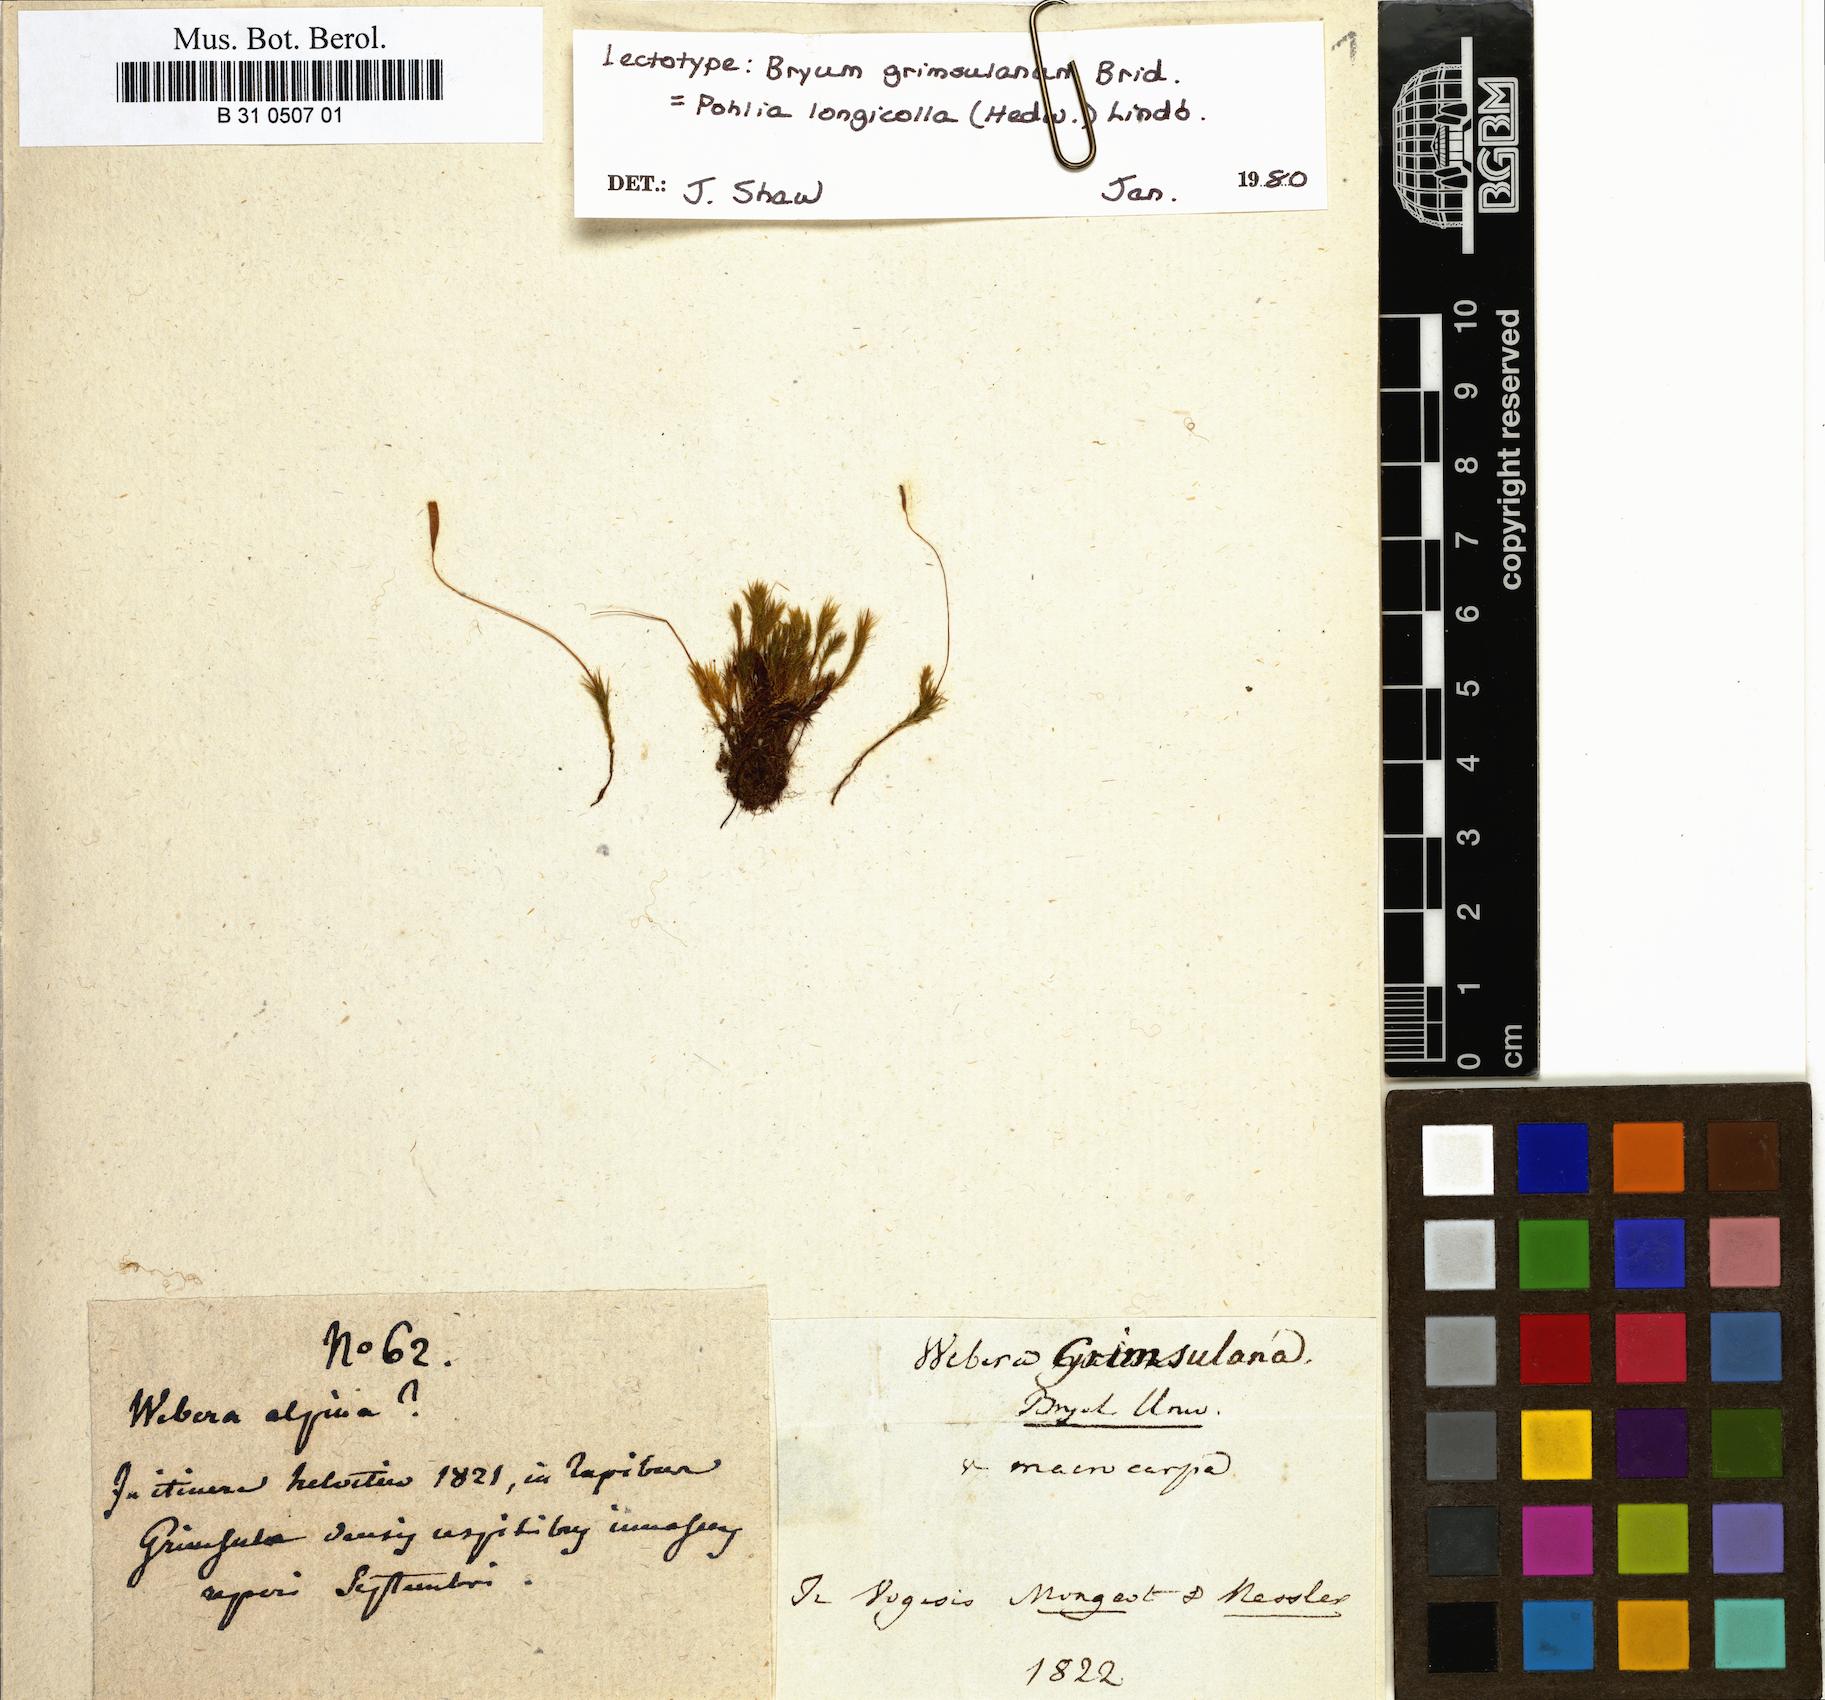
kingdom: Plantae
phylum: Bryophyta
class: Bryopsida
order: Bryales
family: Mniaceae
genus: Pohlia
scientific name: Pohlia longicolla
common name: Long-necked nodding moss
